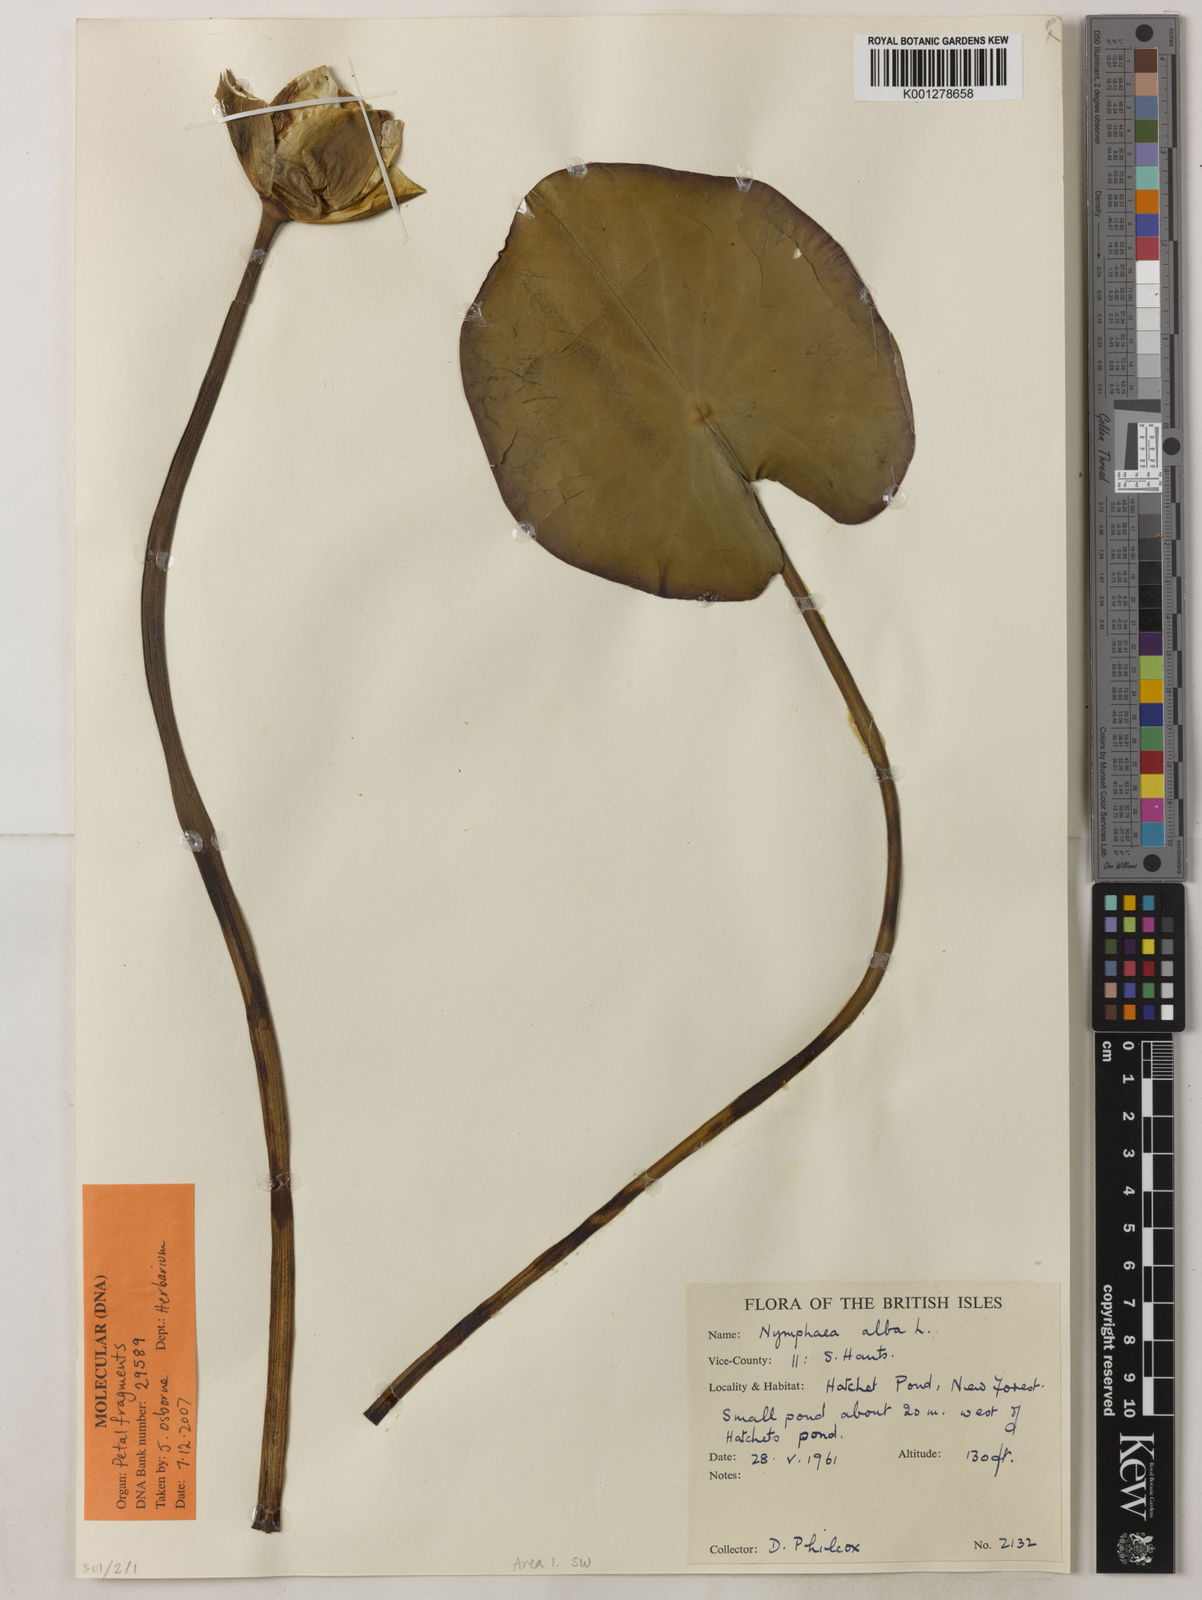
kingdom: Plantae
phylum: Tracheophyta
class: Magnoliopsida
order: Nymphaeales
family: Nymphaeaceae
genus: Nymphaea
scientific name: Nymphaea alba
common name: White water-lily
